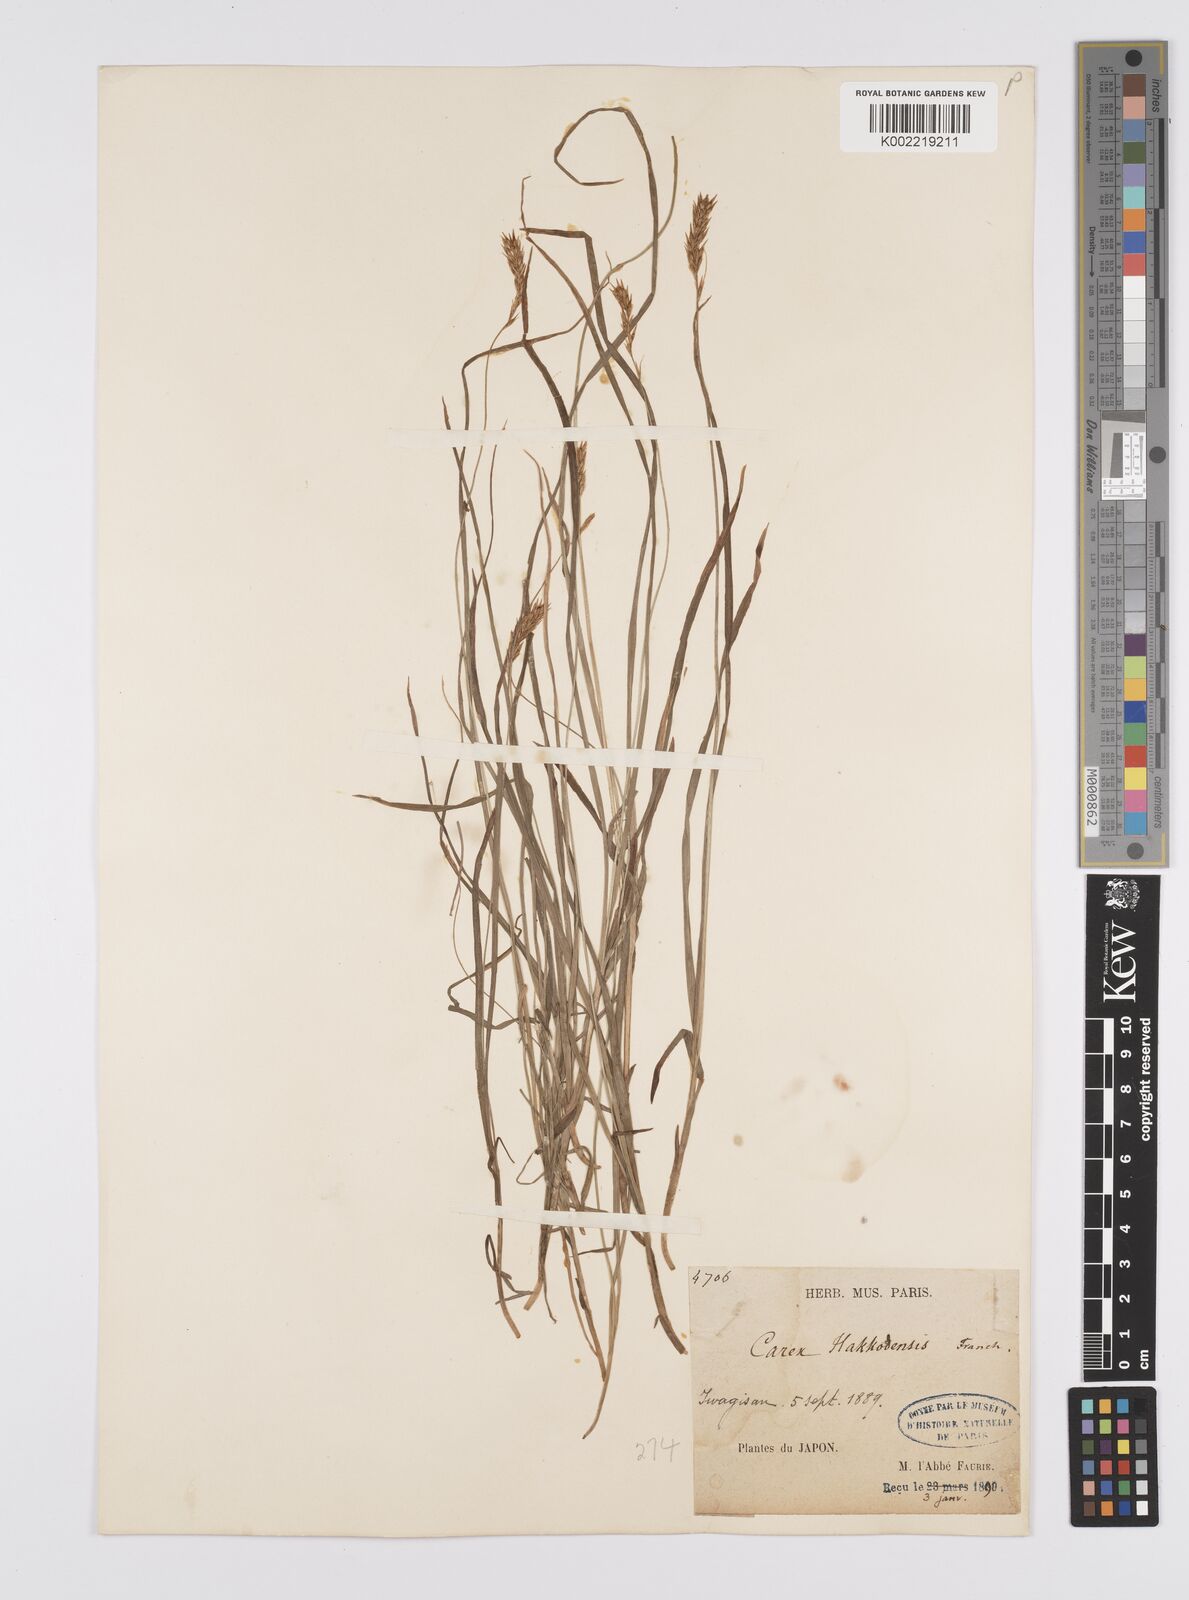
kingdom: Plantae
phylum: Tracheophyta
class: Liliopsida
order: Poales
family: Cyperaceae
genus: Carex
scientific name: Carex hakkodensis
